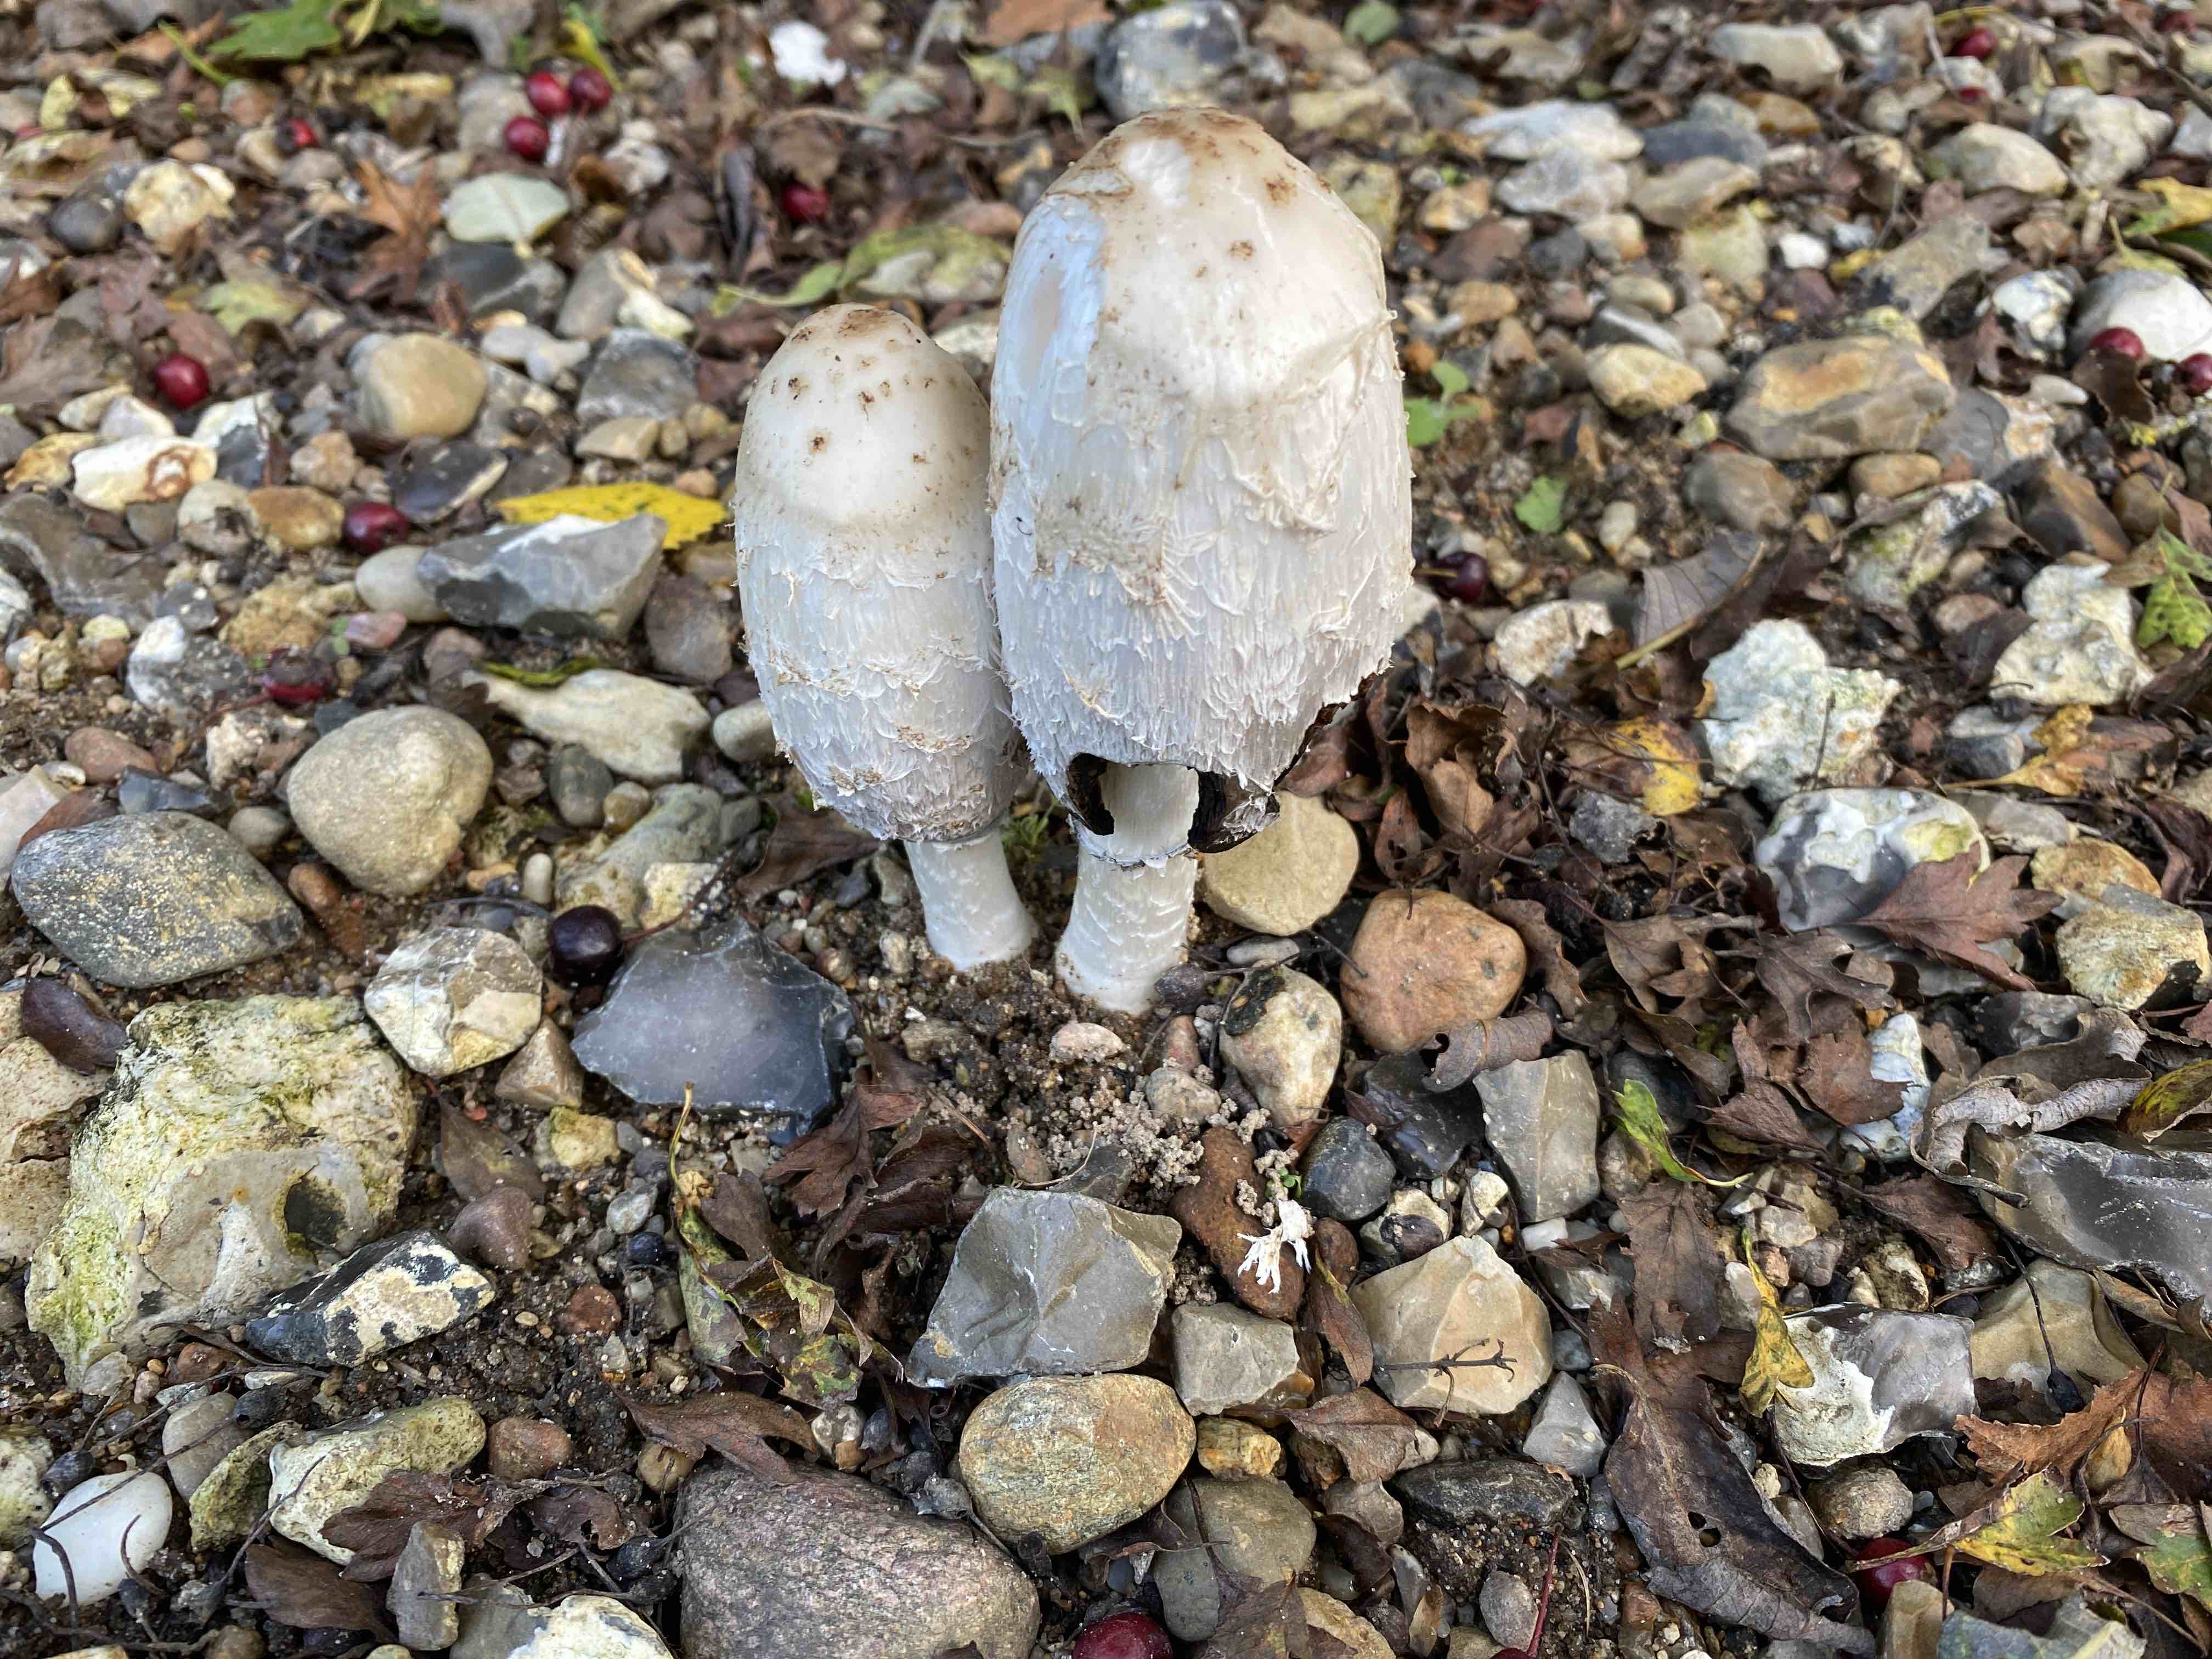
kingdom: Fungi
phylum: Basidiomycota
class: Agaricomycetes
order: Agaricales
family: Agaricaceae
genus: Coprinus
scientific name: Coprinus comatus
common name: stor parykhat
